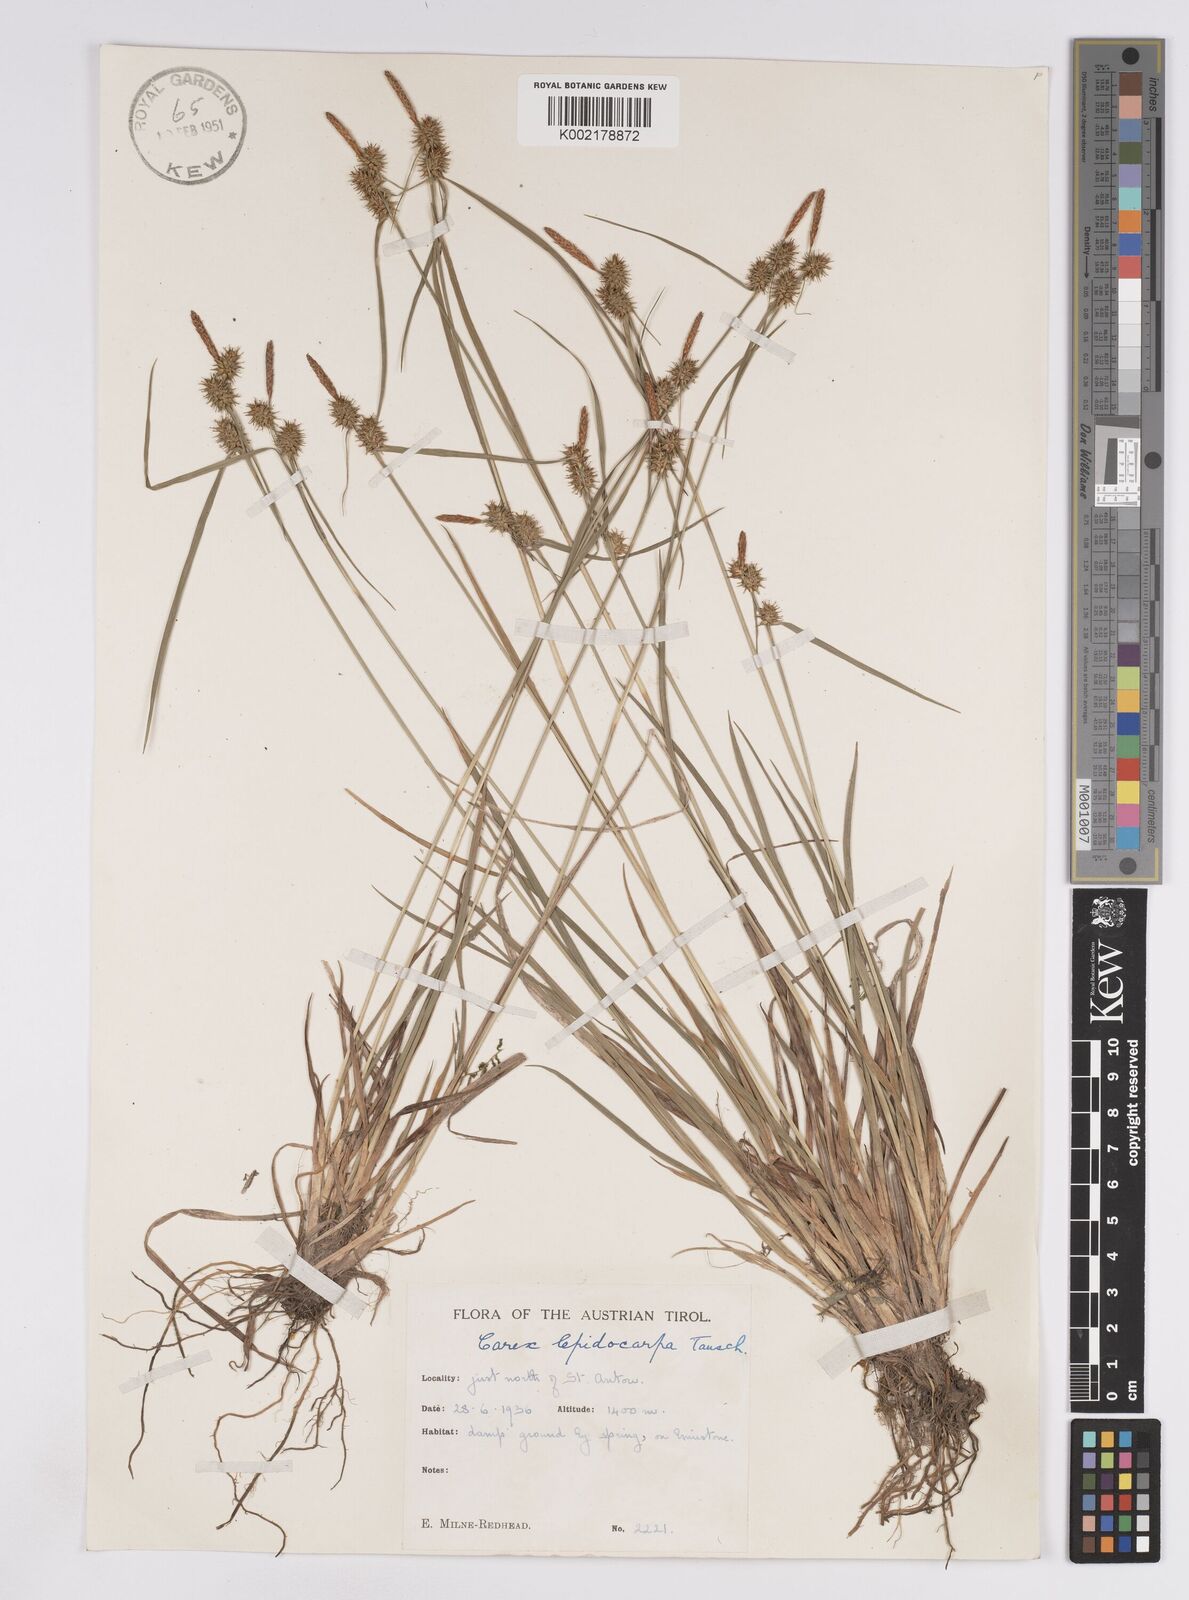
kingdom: Plantae
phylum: Tracheophyta
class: Liliopsida
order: Poales
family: Cyperaceae
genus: Carex
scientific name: Carex lepidocarpa
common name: Long-stalked yellow-sedge
